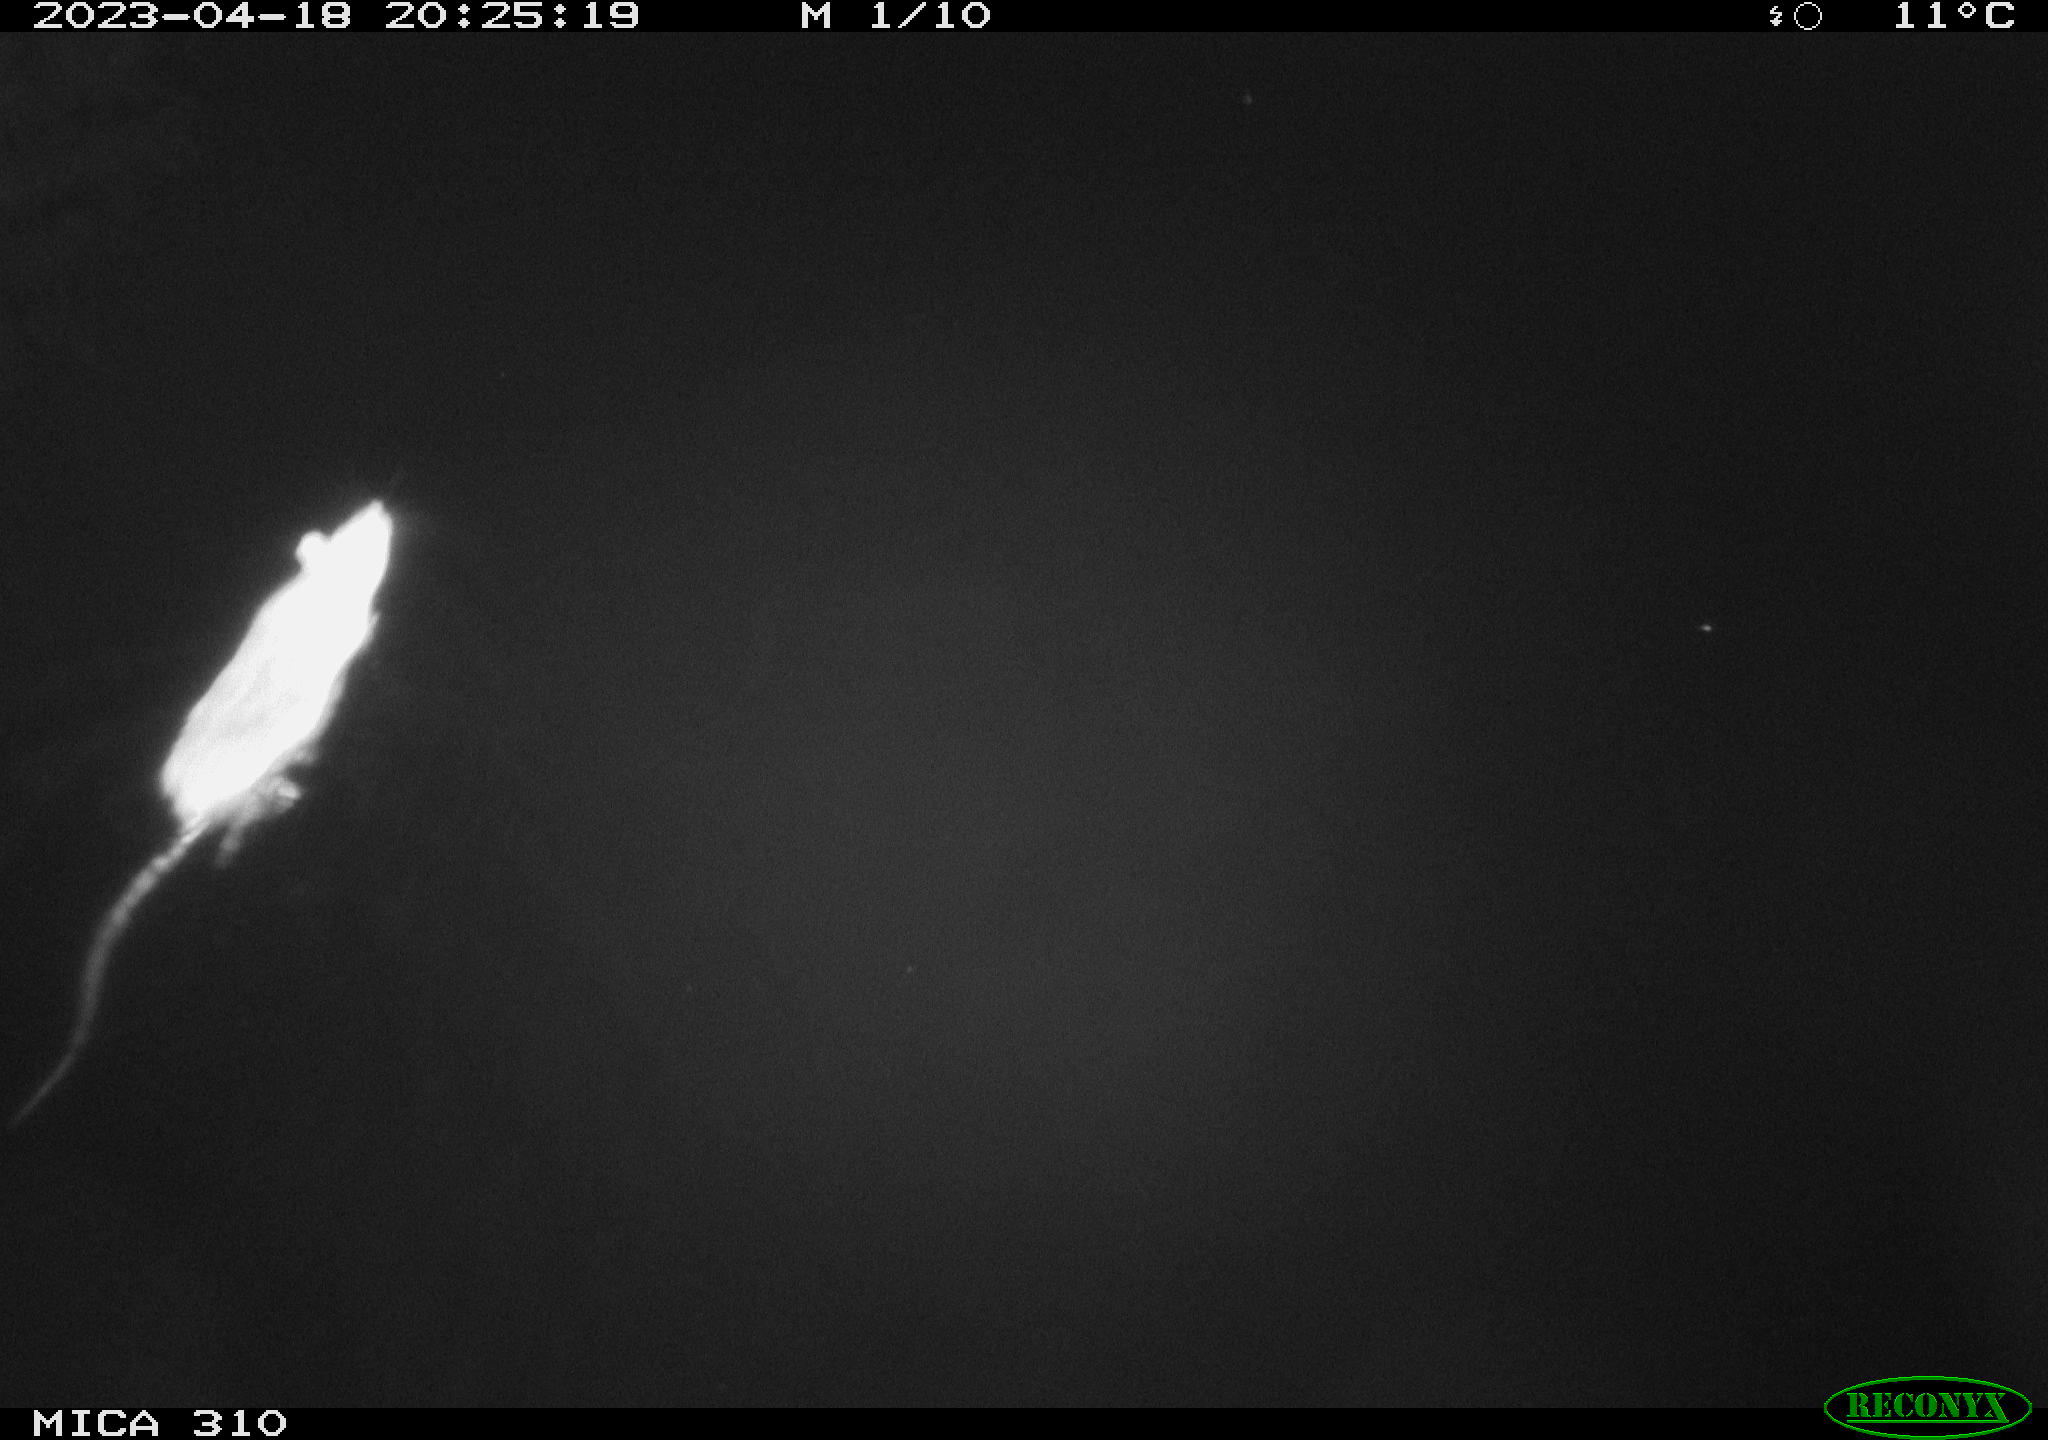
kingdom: Animalia
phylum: Chordata
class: Mammalia
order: Rodentia
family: Muridae
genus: Rattus
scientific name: Rattus norvegicus
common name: Brown rat
